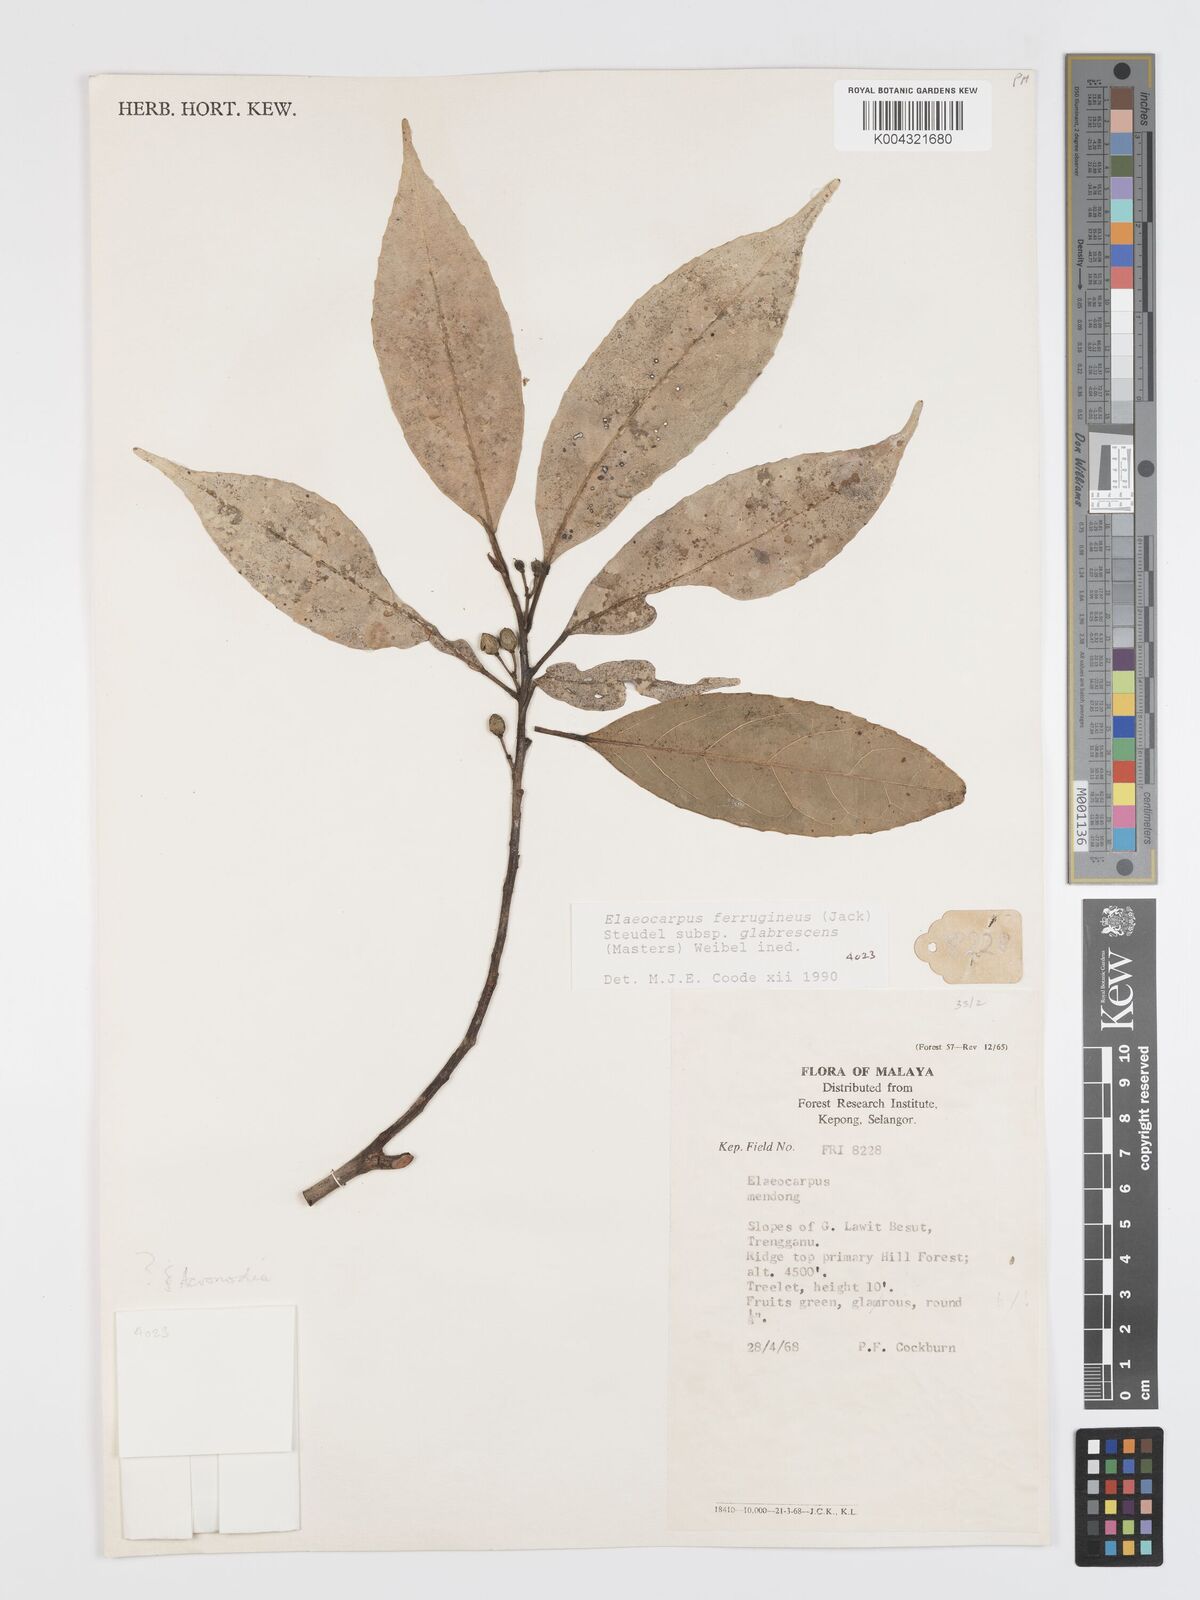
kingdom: Plantae
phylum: Tracheophyta
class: Magnoliopsida
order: Oxalidales
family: Elaeocarpaceae
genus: Elaeocarpus
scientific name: Elaeocarpus ferrugineus
